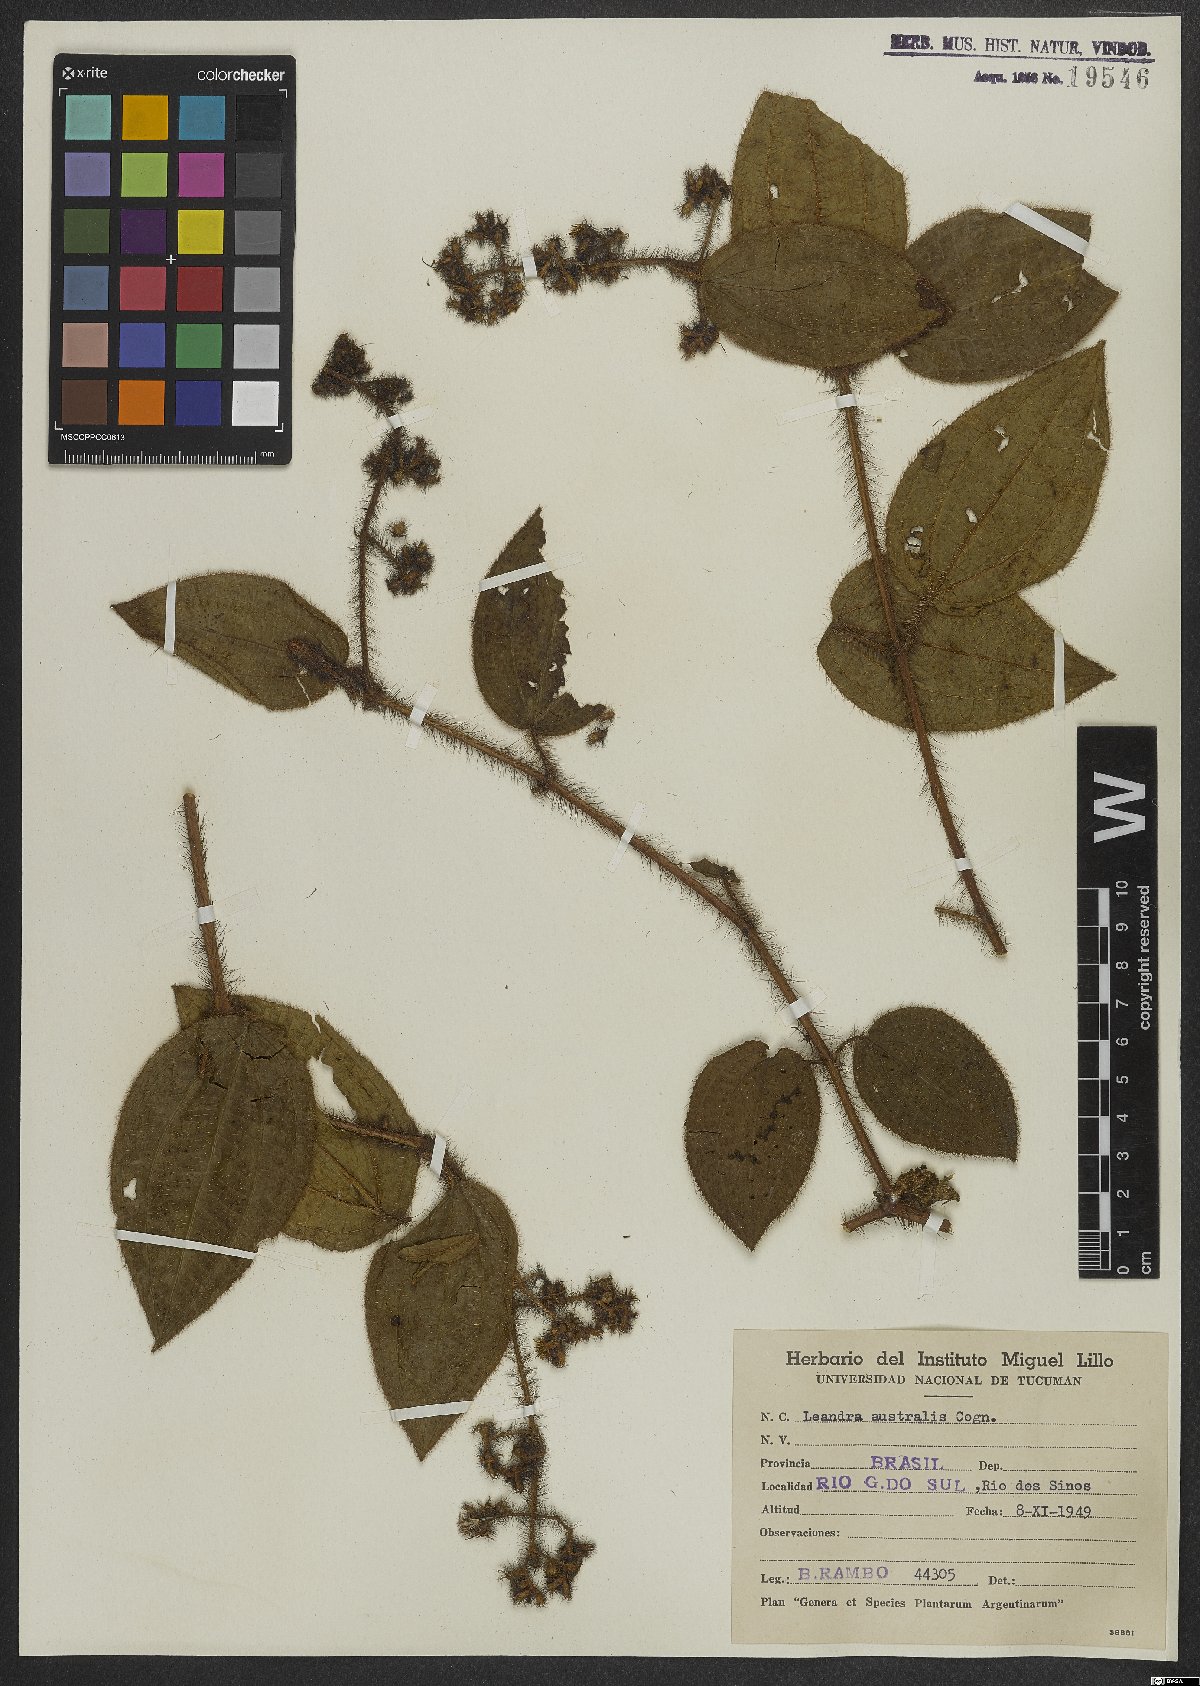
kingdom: Plantae
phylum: Tracheophyta
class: Magnoliopsida
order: Myrtales
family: Melastomataceae
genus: Miconia
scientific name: Miconia australis
